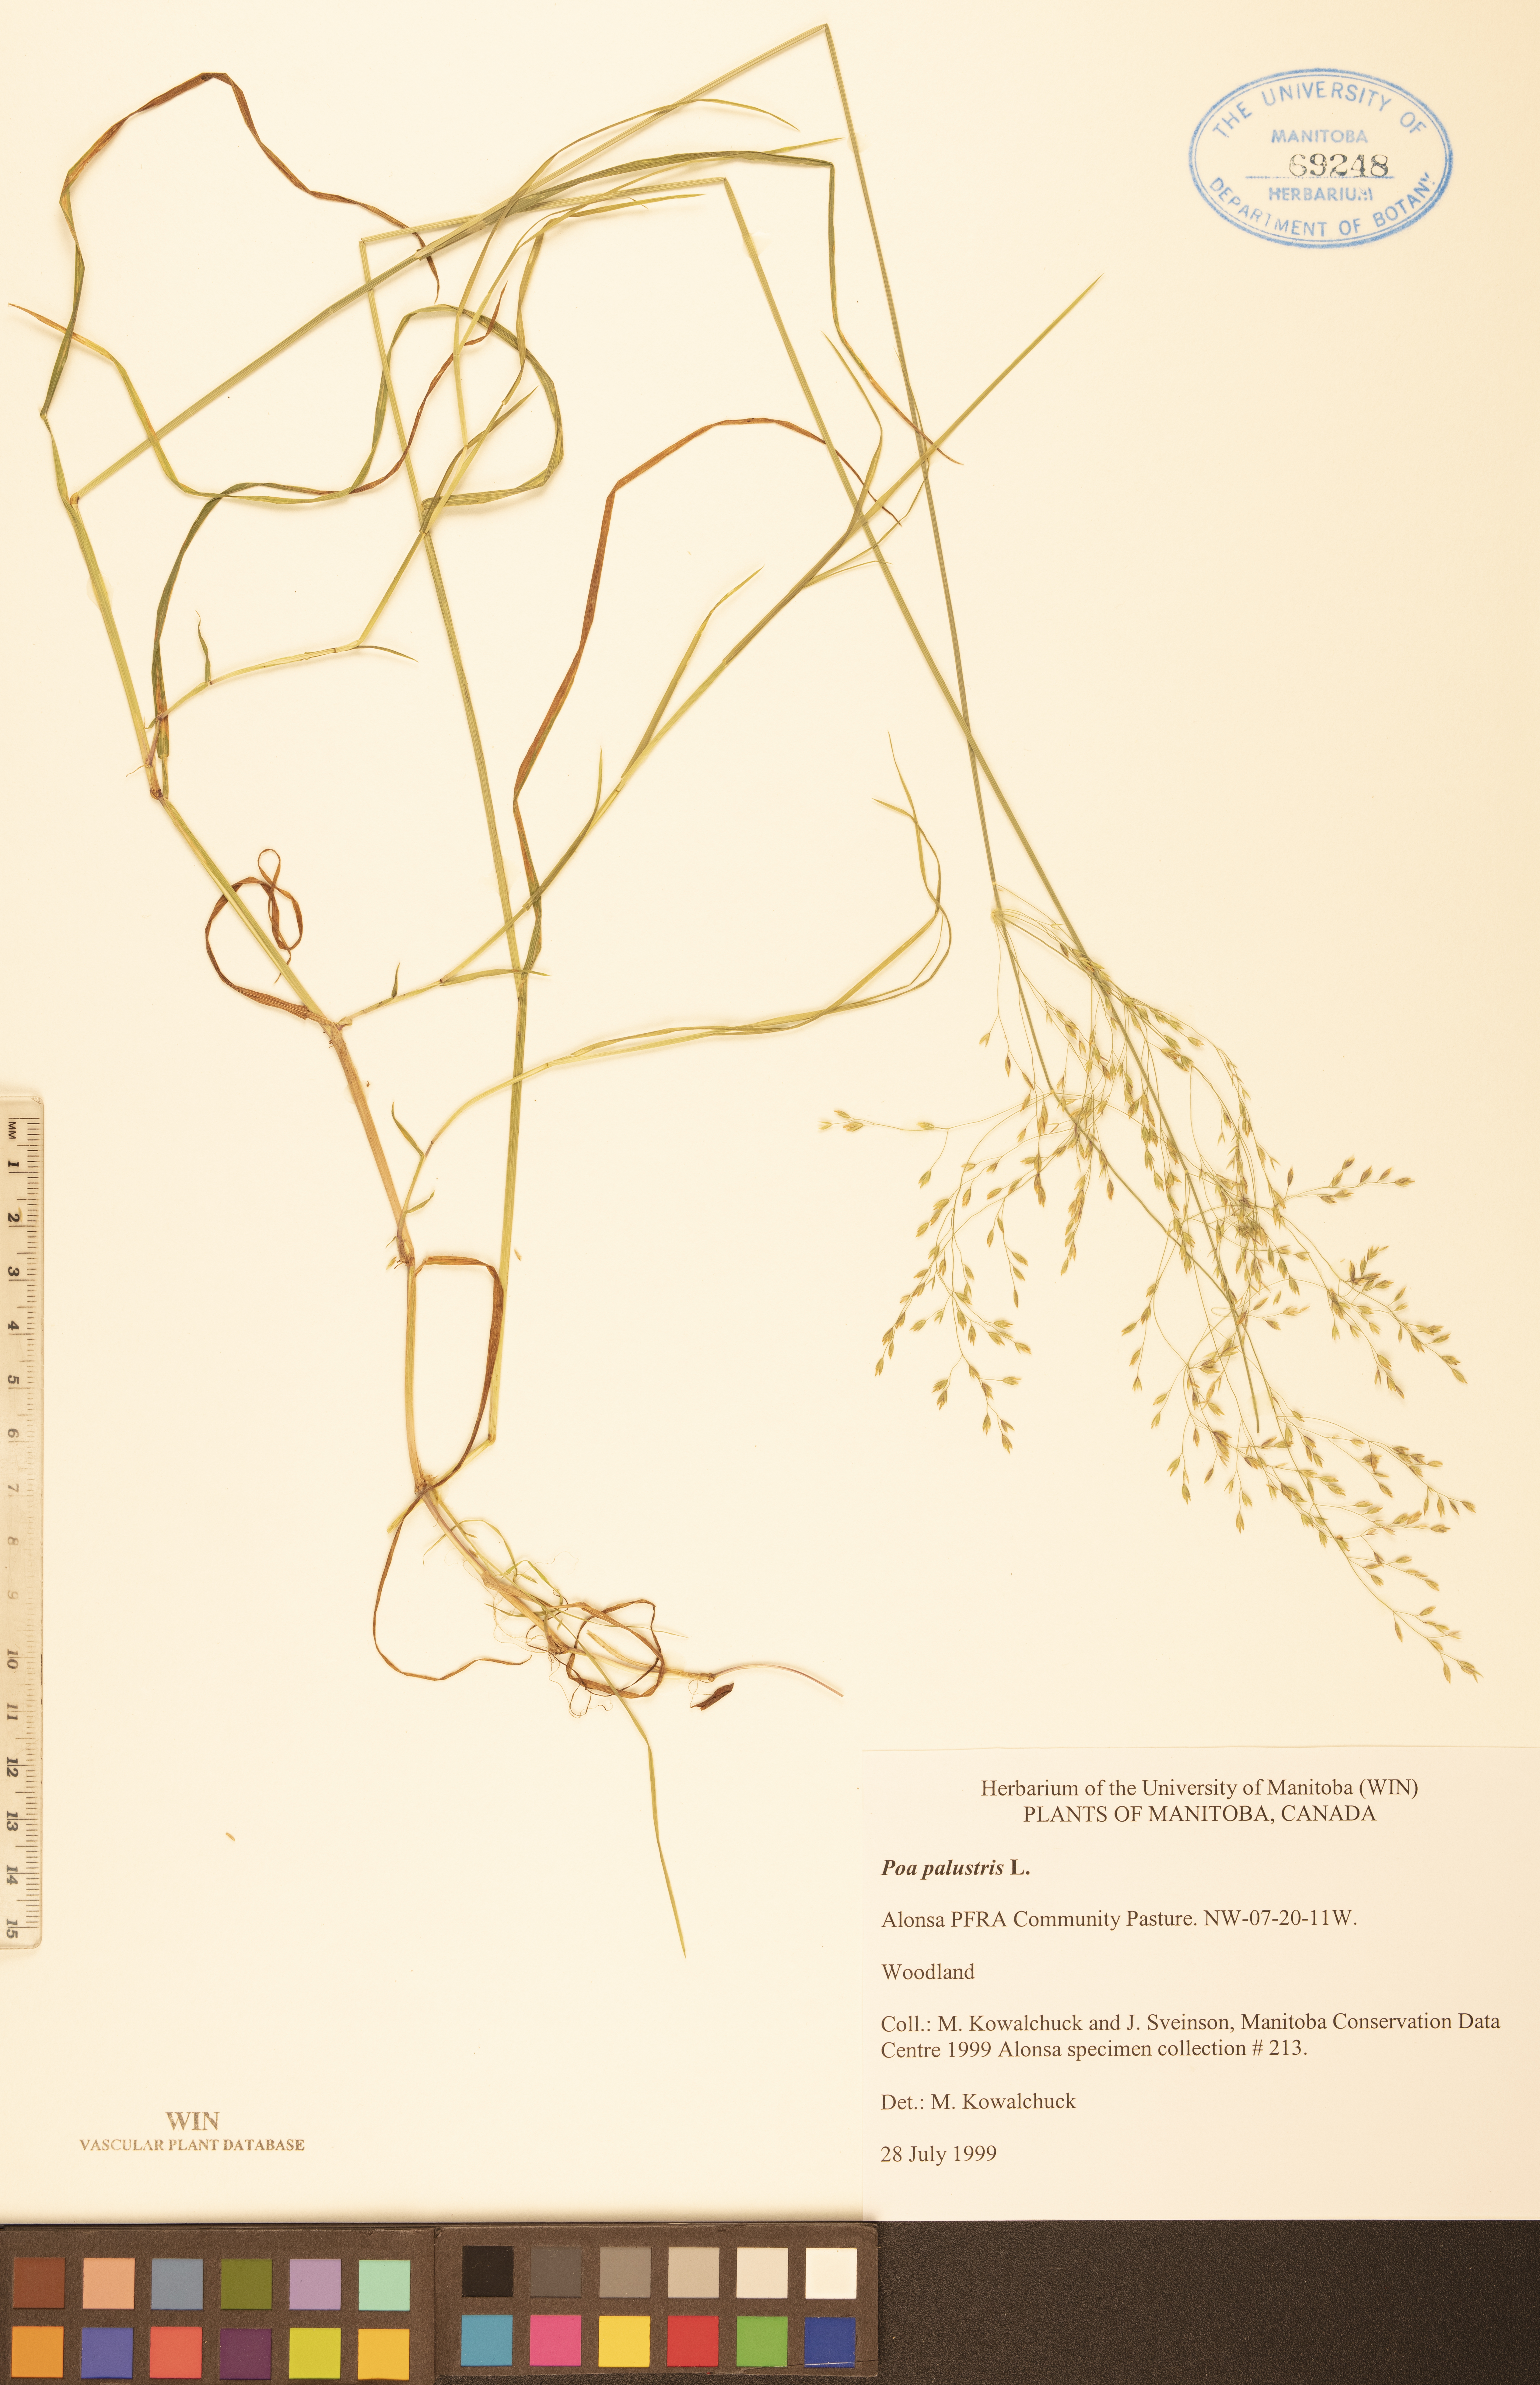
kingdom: Plantae
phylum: Tracheophyta
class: Liliopsida
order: Poales
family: Poaceae
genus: Poa
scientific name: Poa palustris
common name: Swamp meadow-grass
